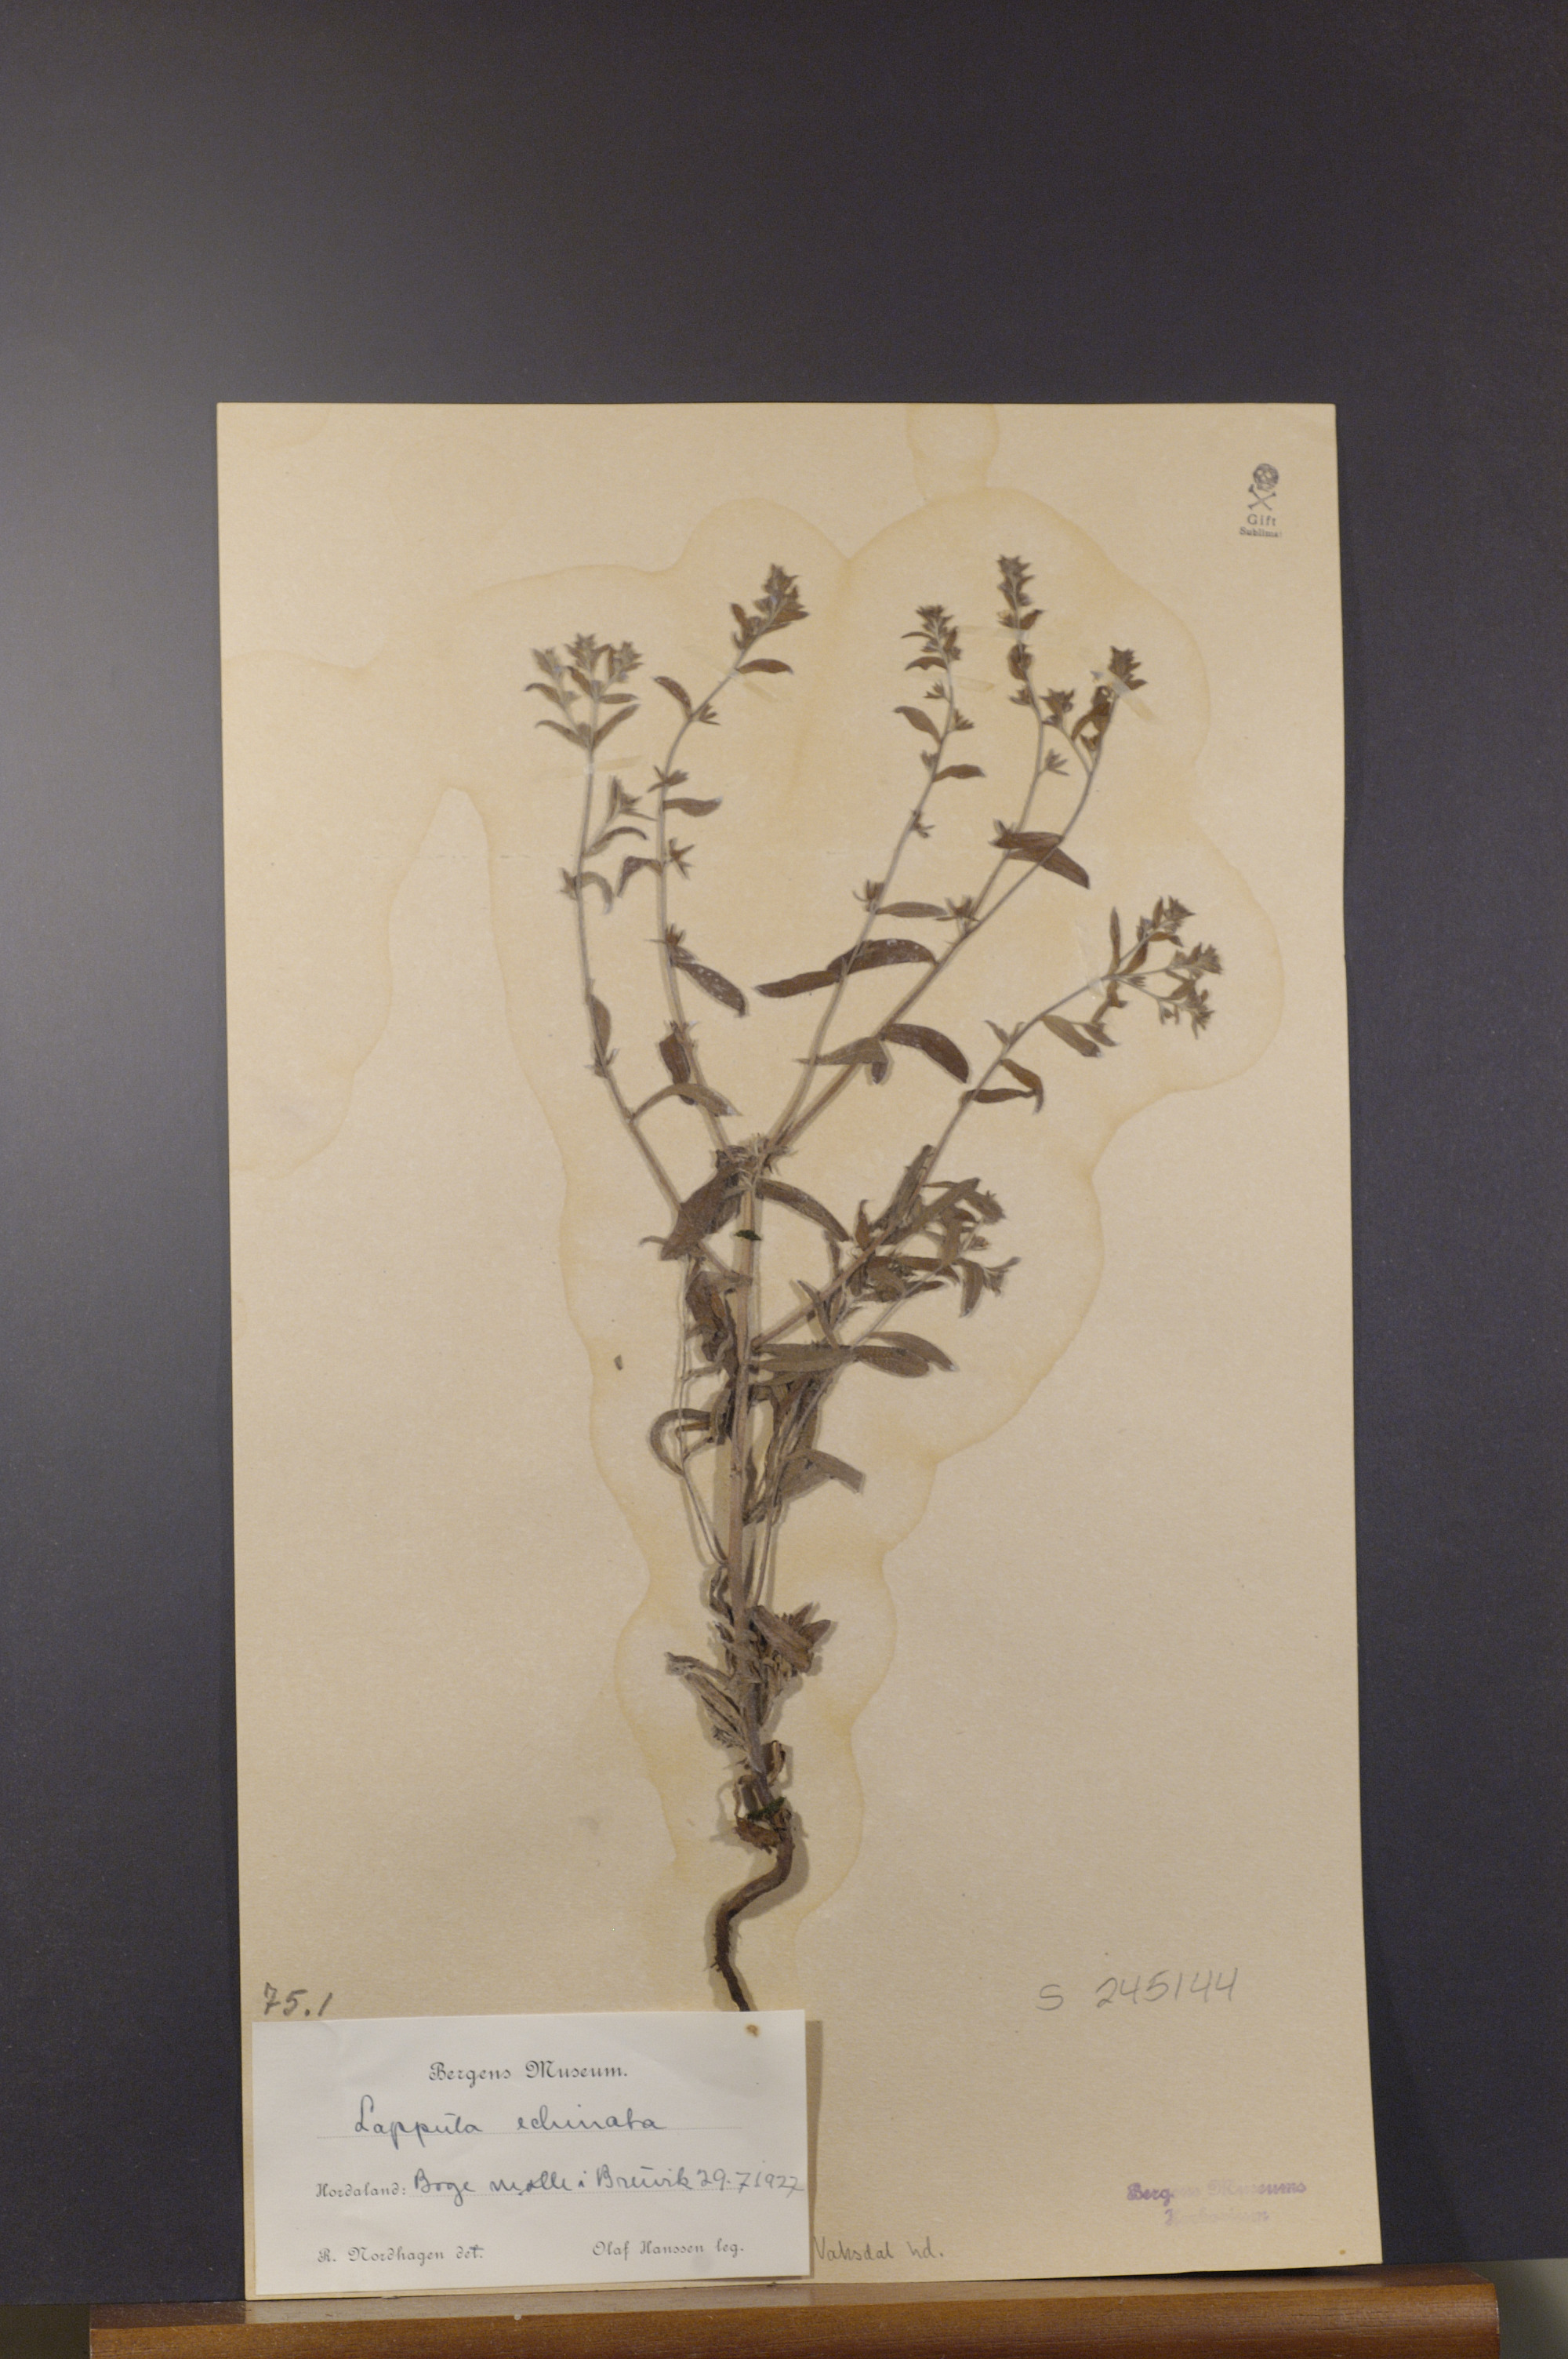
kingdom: Plantae
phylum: Tracheophyta
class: Magnoliopsida
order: Boraginales
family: Boraginaceae
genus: Lappula
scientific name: Lappula squarrosa
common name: European stickseed
